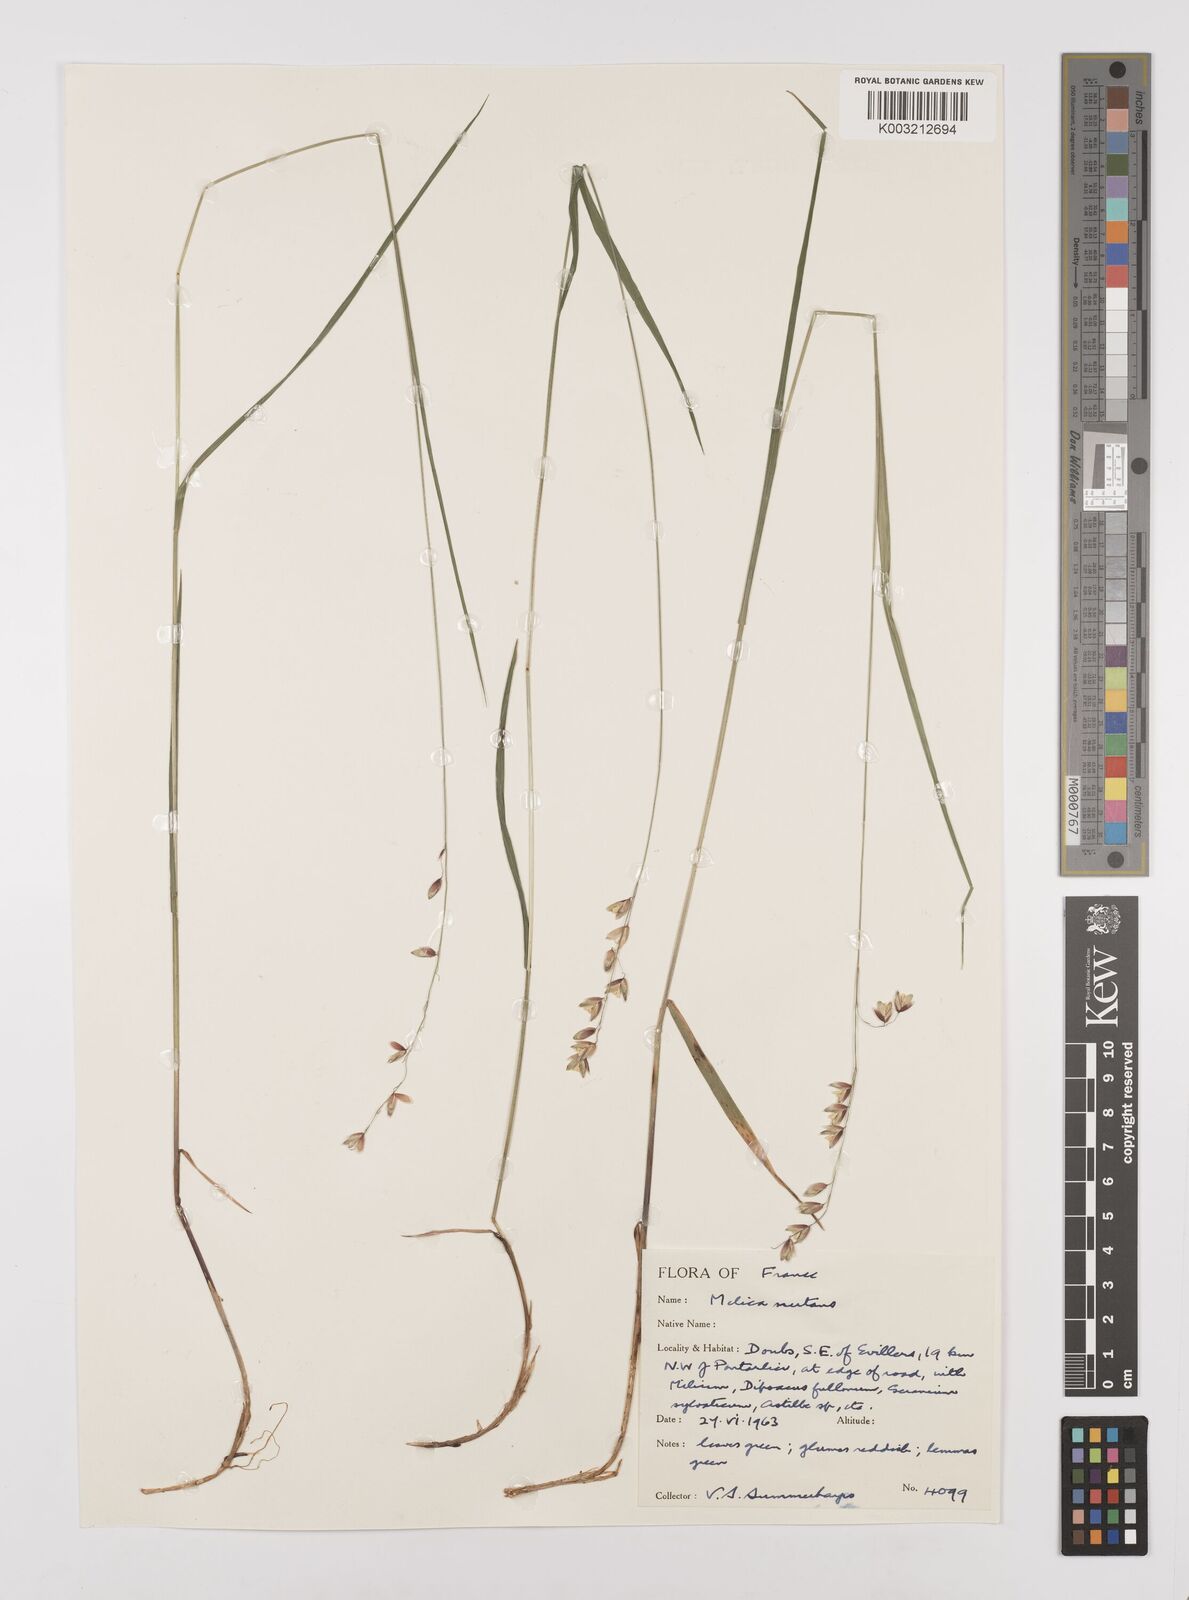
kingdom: Plantae
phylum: Tracheophyta
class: Liliopsida
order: Poales
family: Poaceae
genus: Melica
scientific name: Melica nutans
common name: Mountain melick
